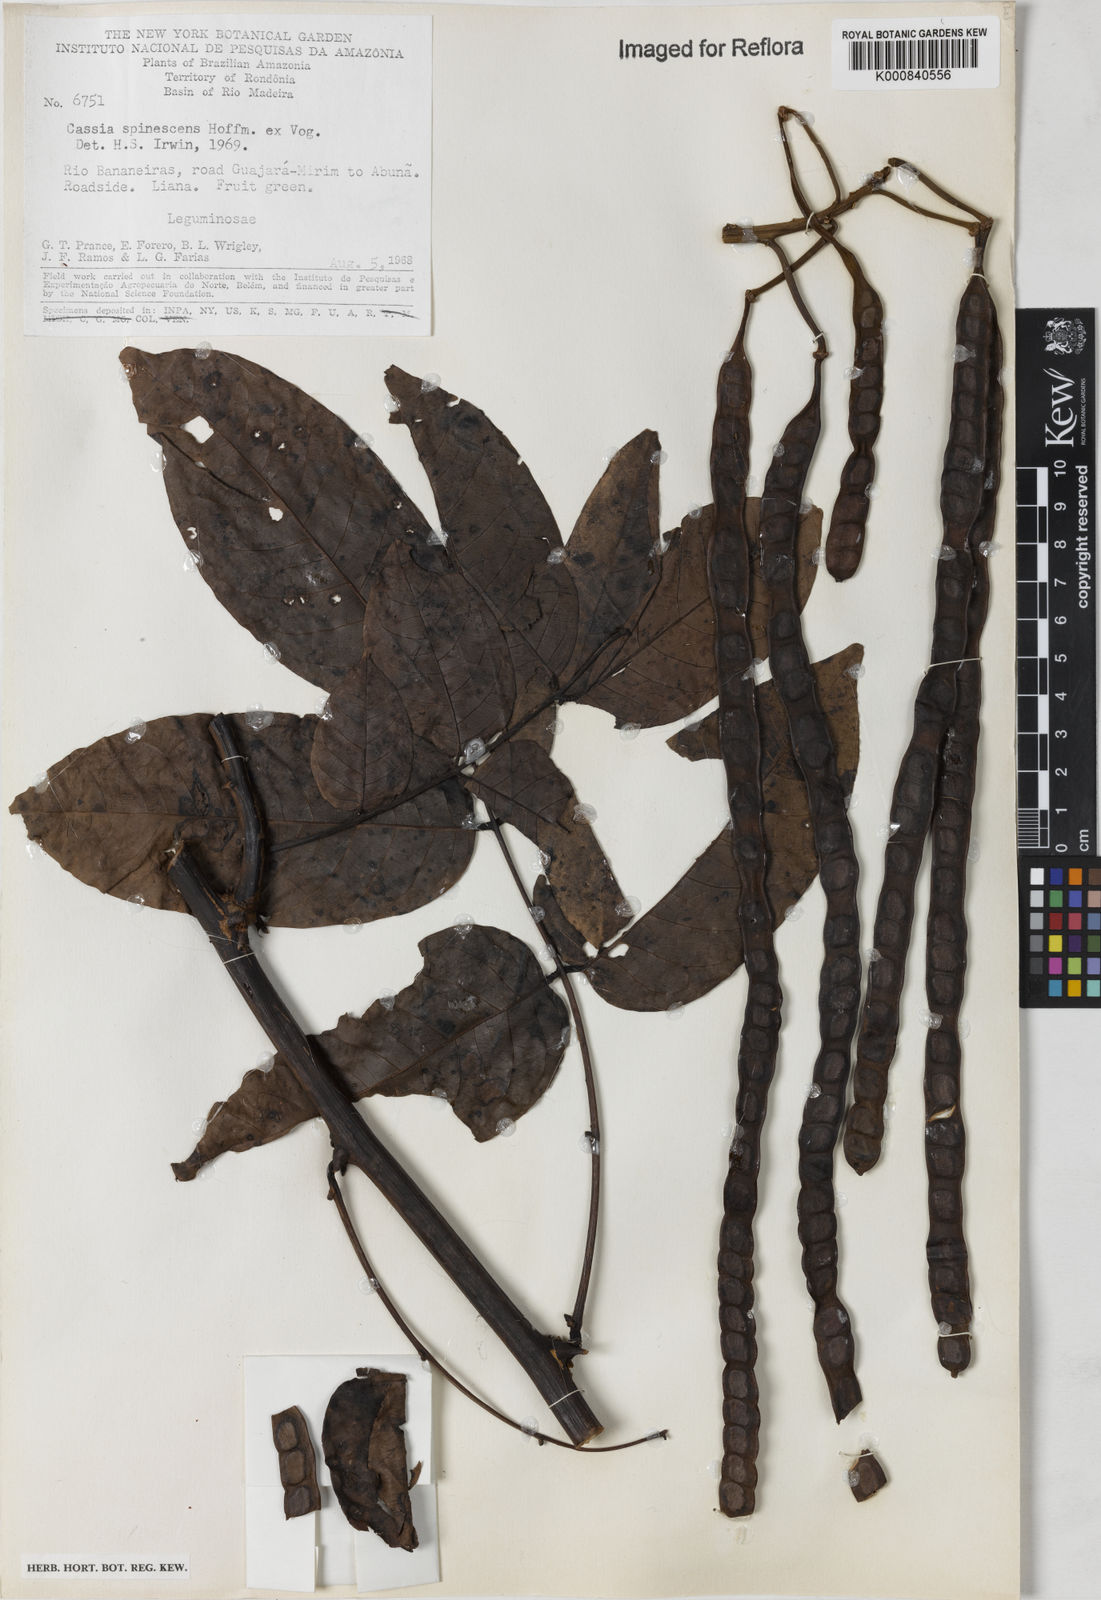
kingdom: Plantae
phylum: Tracheophyta
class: Magnoliopsida
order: Fabales
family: Fabaceae
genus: Senna
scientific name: Senna spinescens
